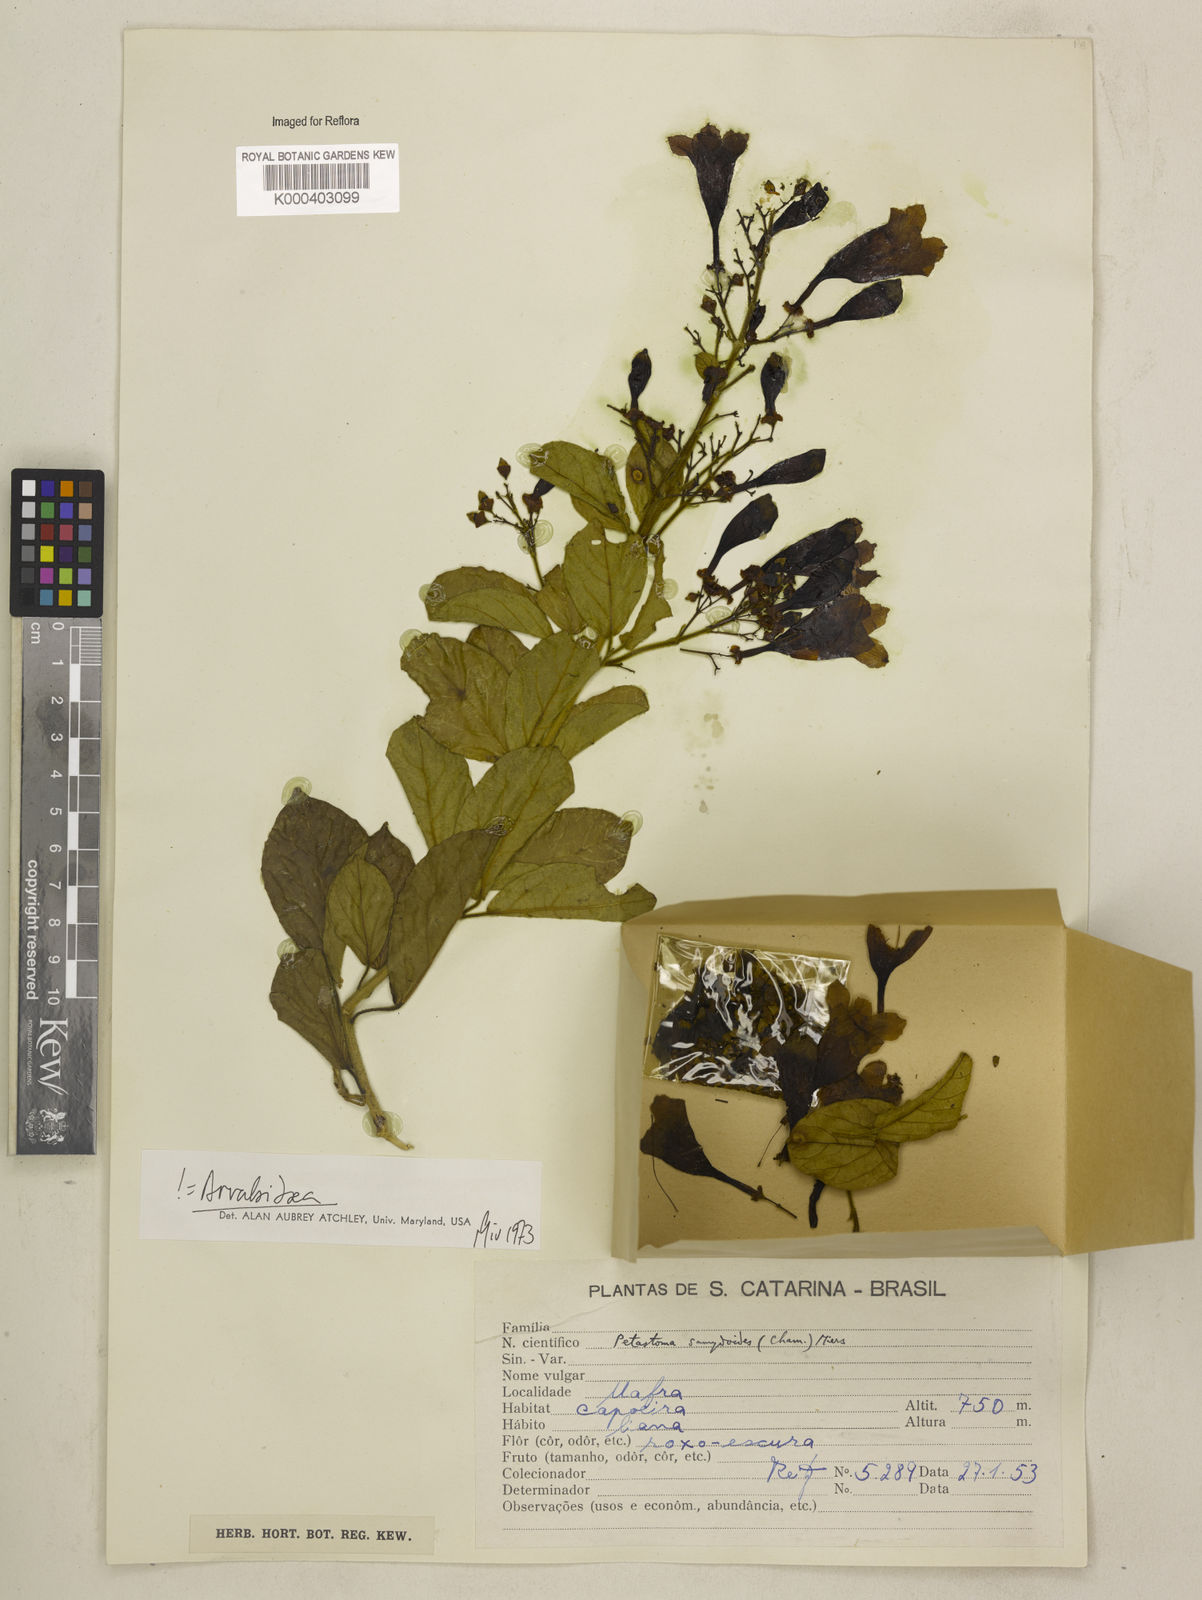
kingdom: Plantae
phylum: Tracheophyta
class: Magnoliopsida
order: Lamiales
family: Bignoniaceae
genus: Fridericia
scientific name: Fridericia samydoides
